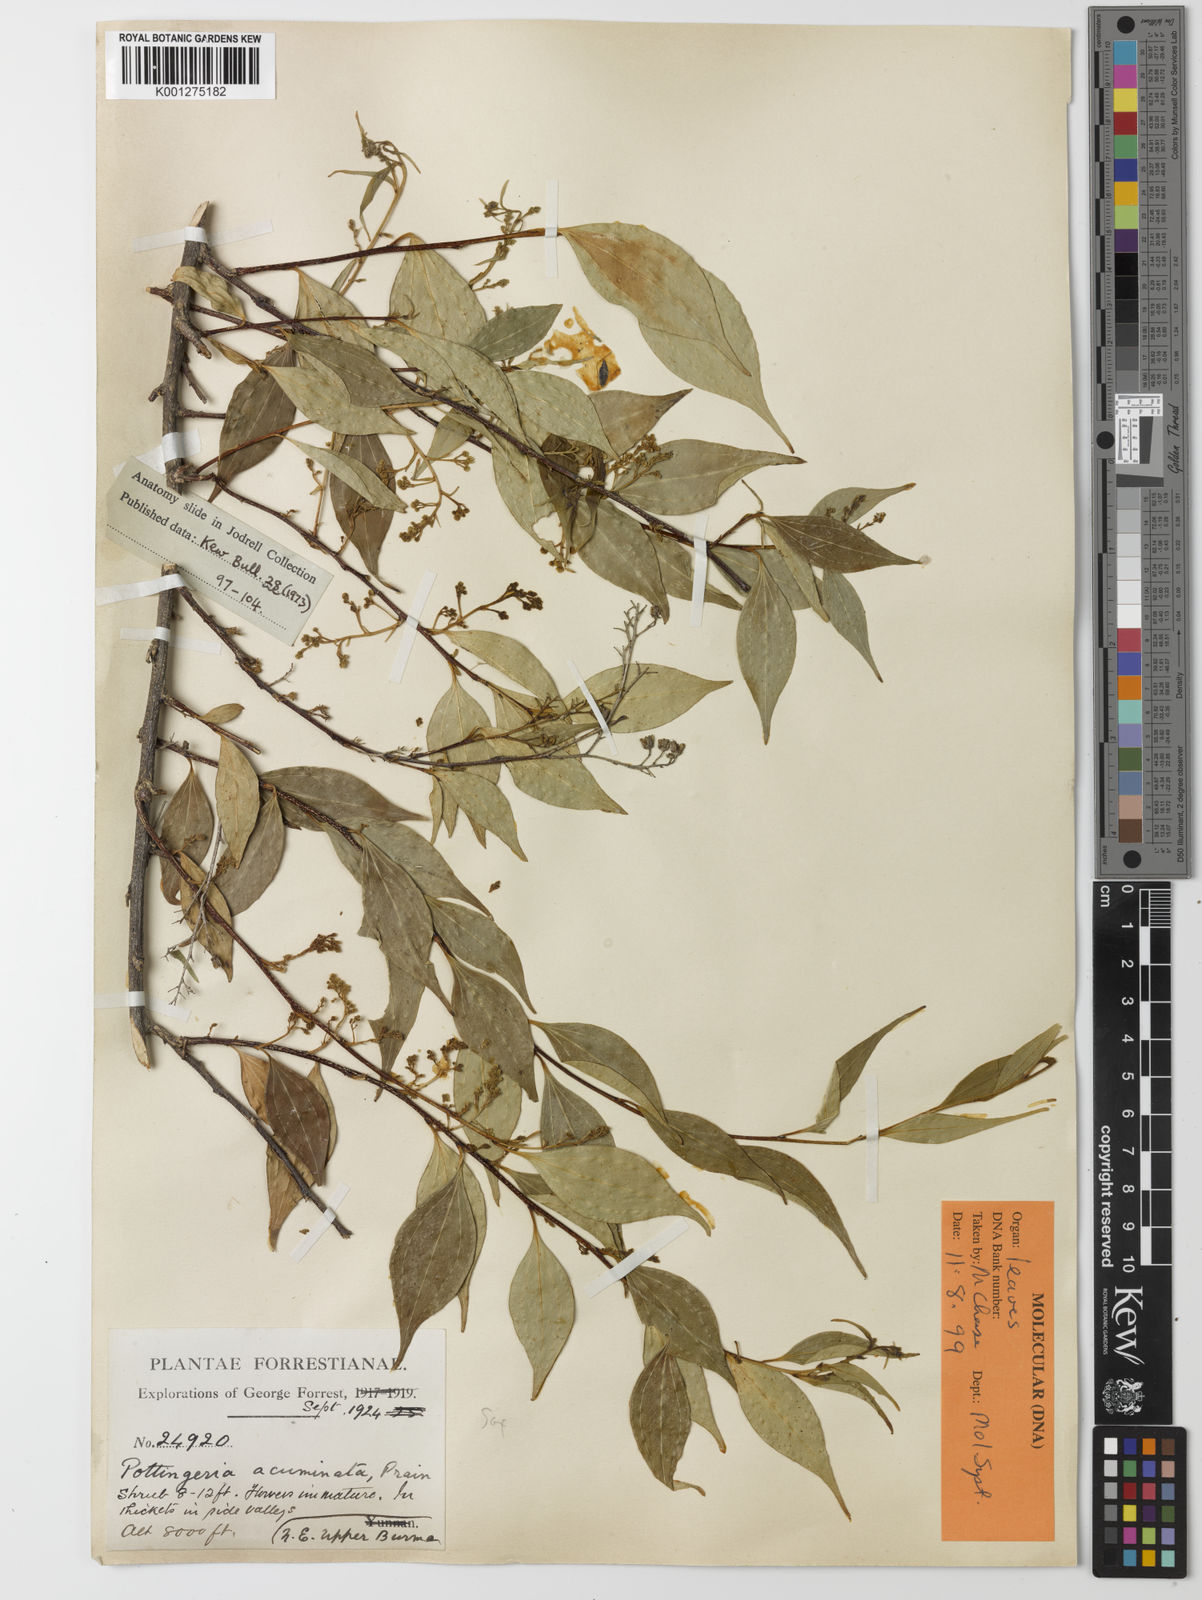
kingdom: Plantae
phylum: Tracheophyta
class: Magnoliopsida
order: Celastrales
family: Celastraceae
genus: Pottingeria
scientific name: Pottingeria acuminata
